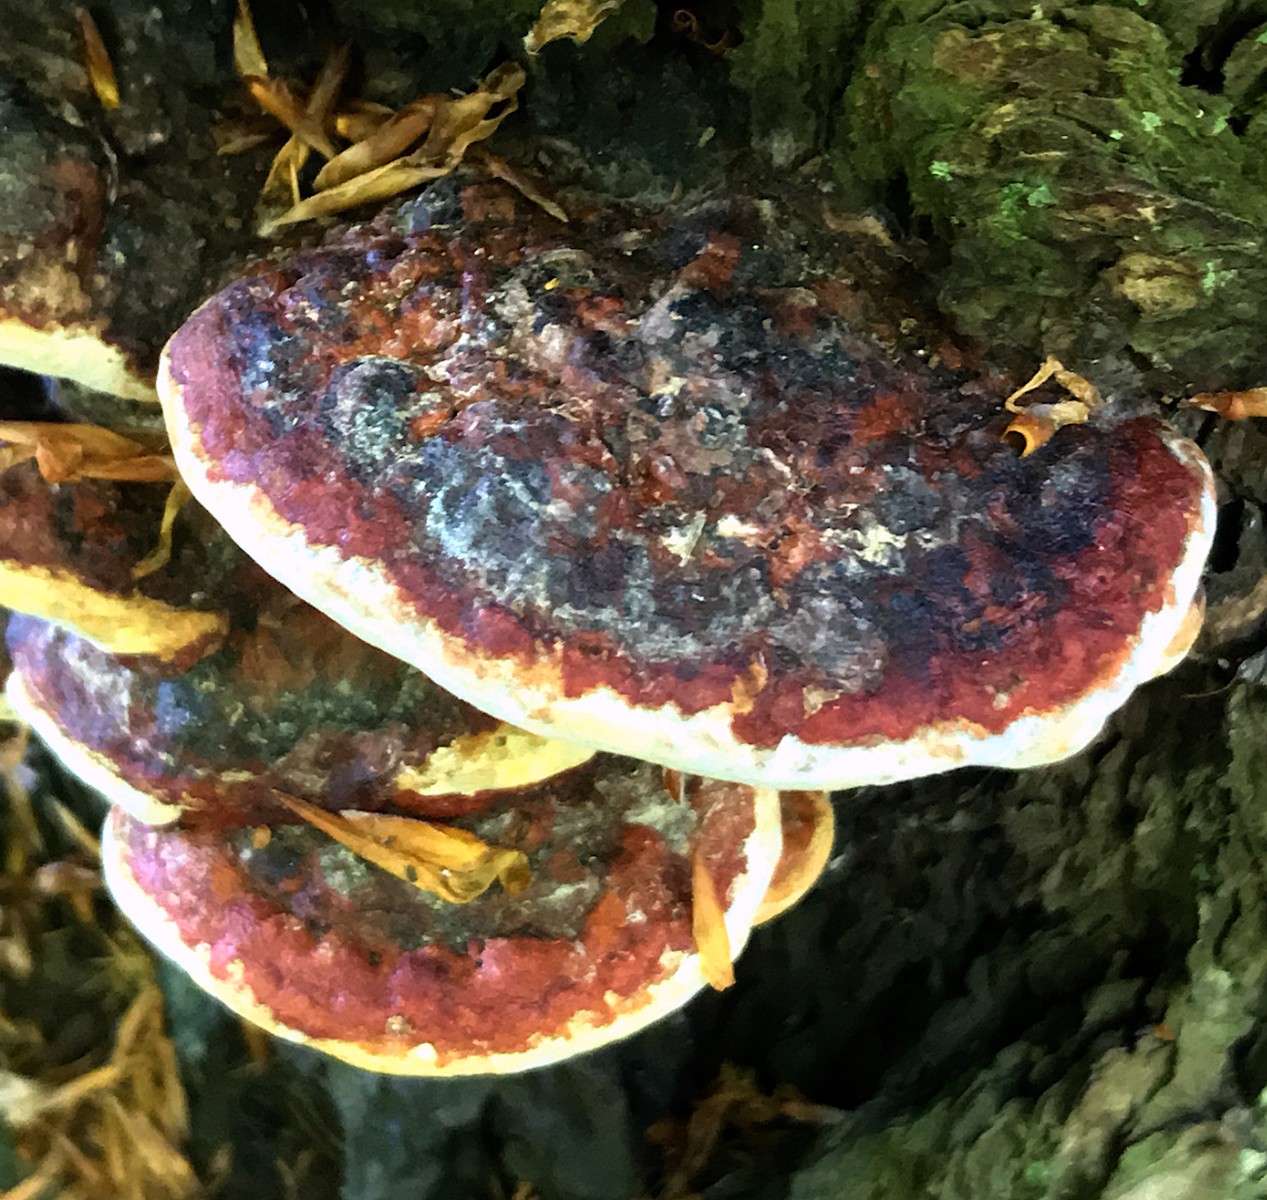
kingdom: Fungi
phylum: Basidiomycota
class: Agaricomycetes
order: Polyporales
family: Fomitopsidaceae
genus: Fomitopsis
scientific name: Fomitopsis pinicola
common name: randbæltet hovporesvamp
